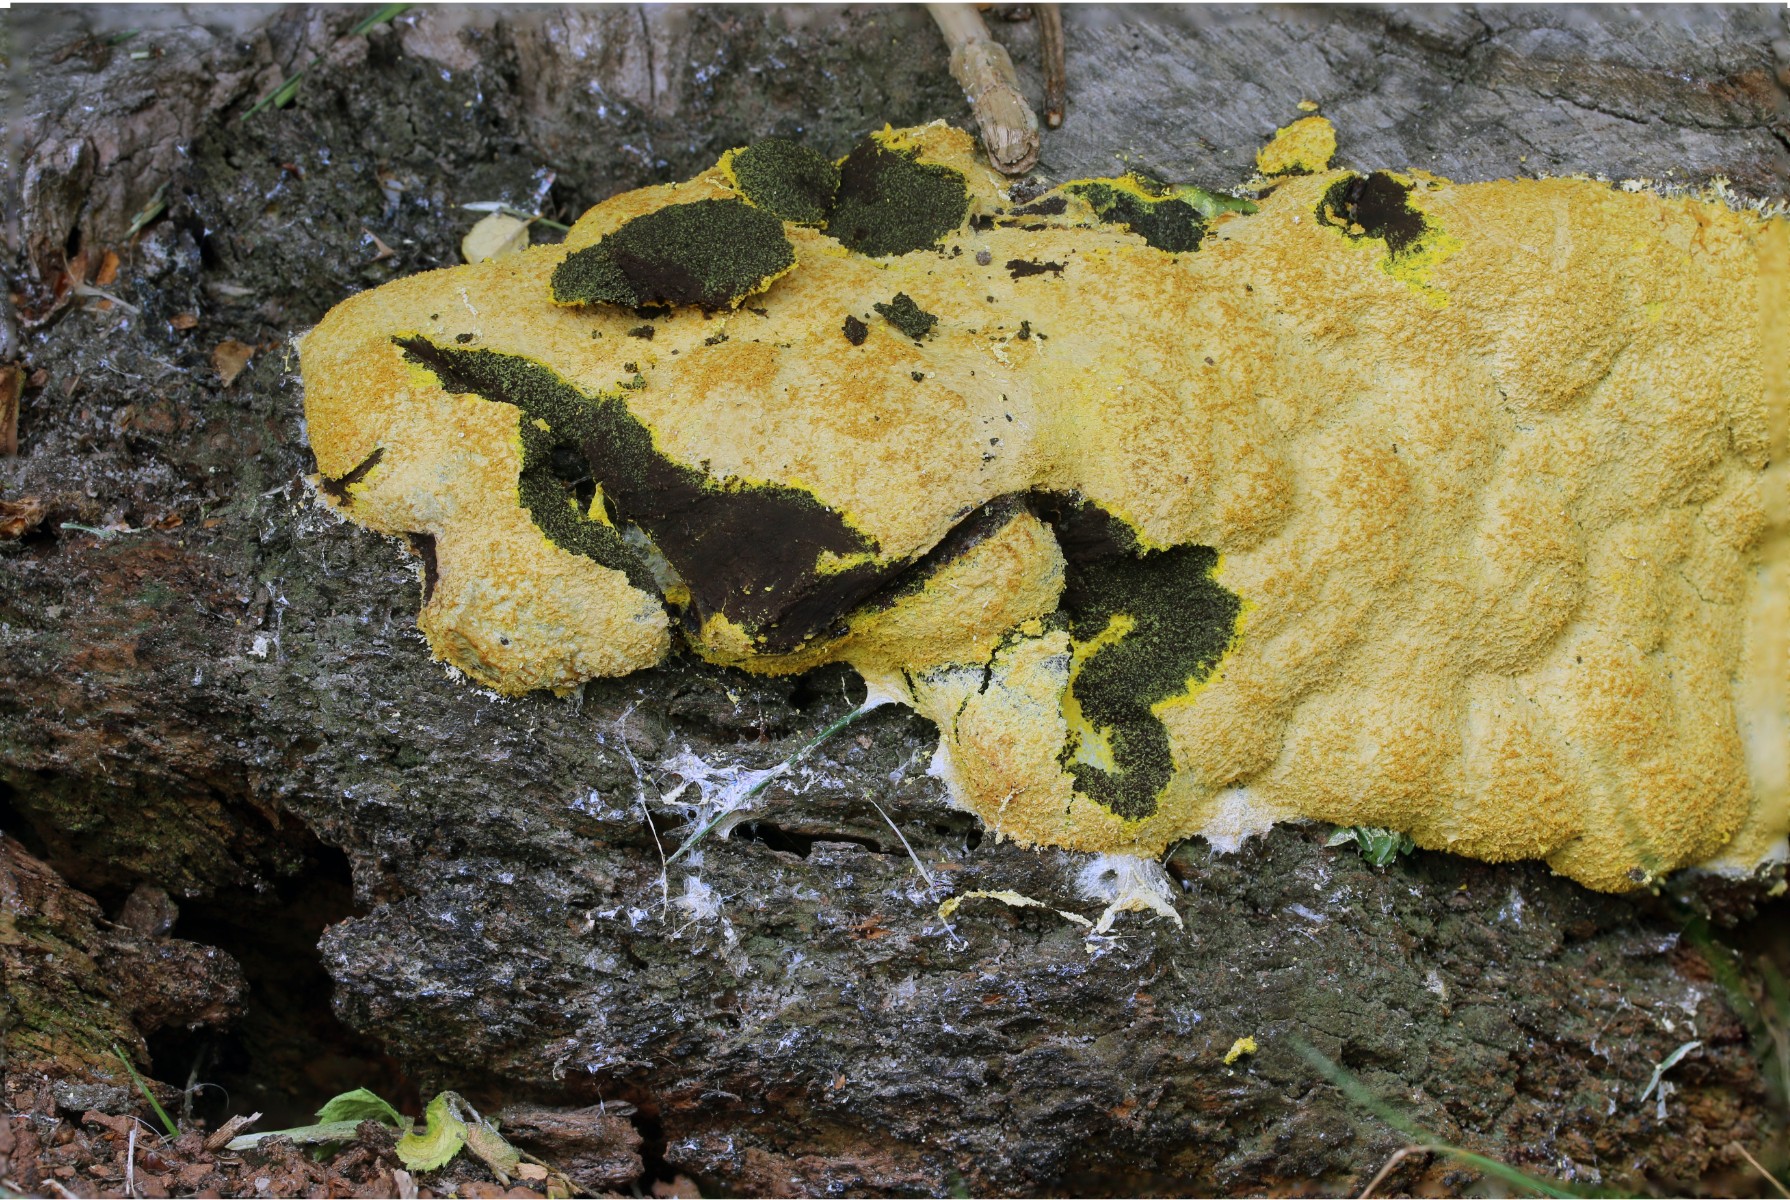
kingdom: Protozoa
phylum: Mycetozoa
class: Myxomycetes
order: Physarales
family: Physaraceae
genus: Fuligo
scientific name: Fuligo septica
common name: gul troldsmør
